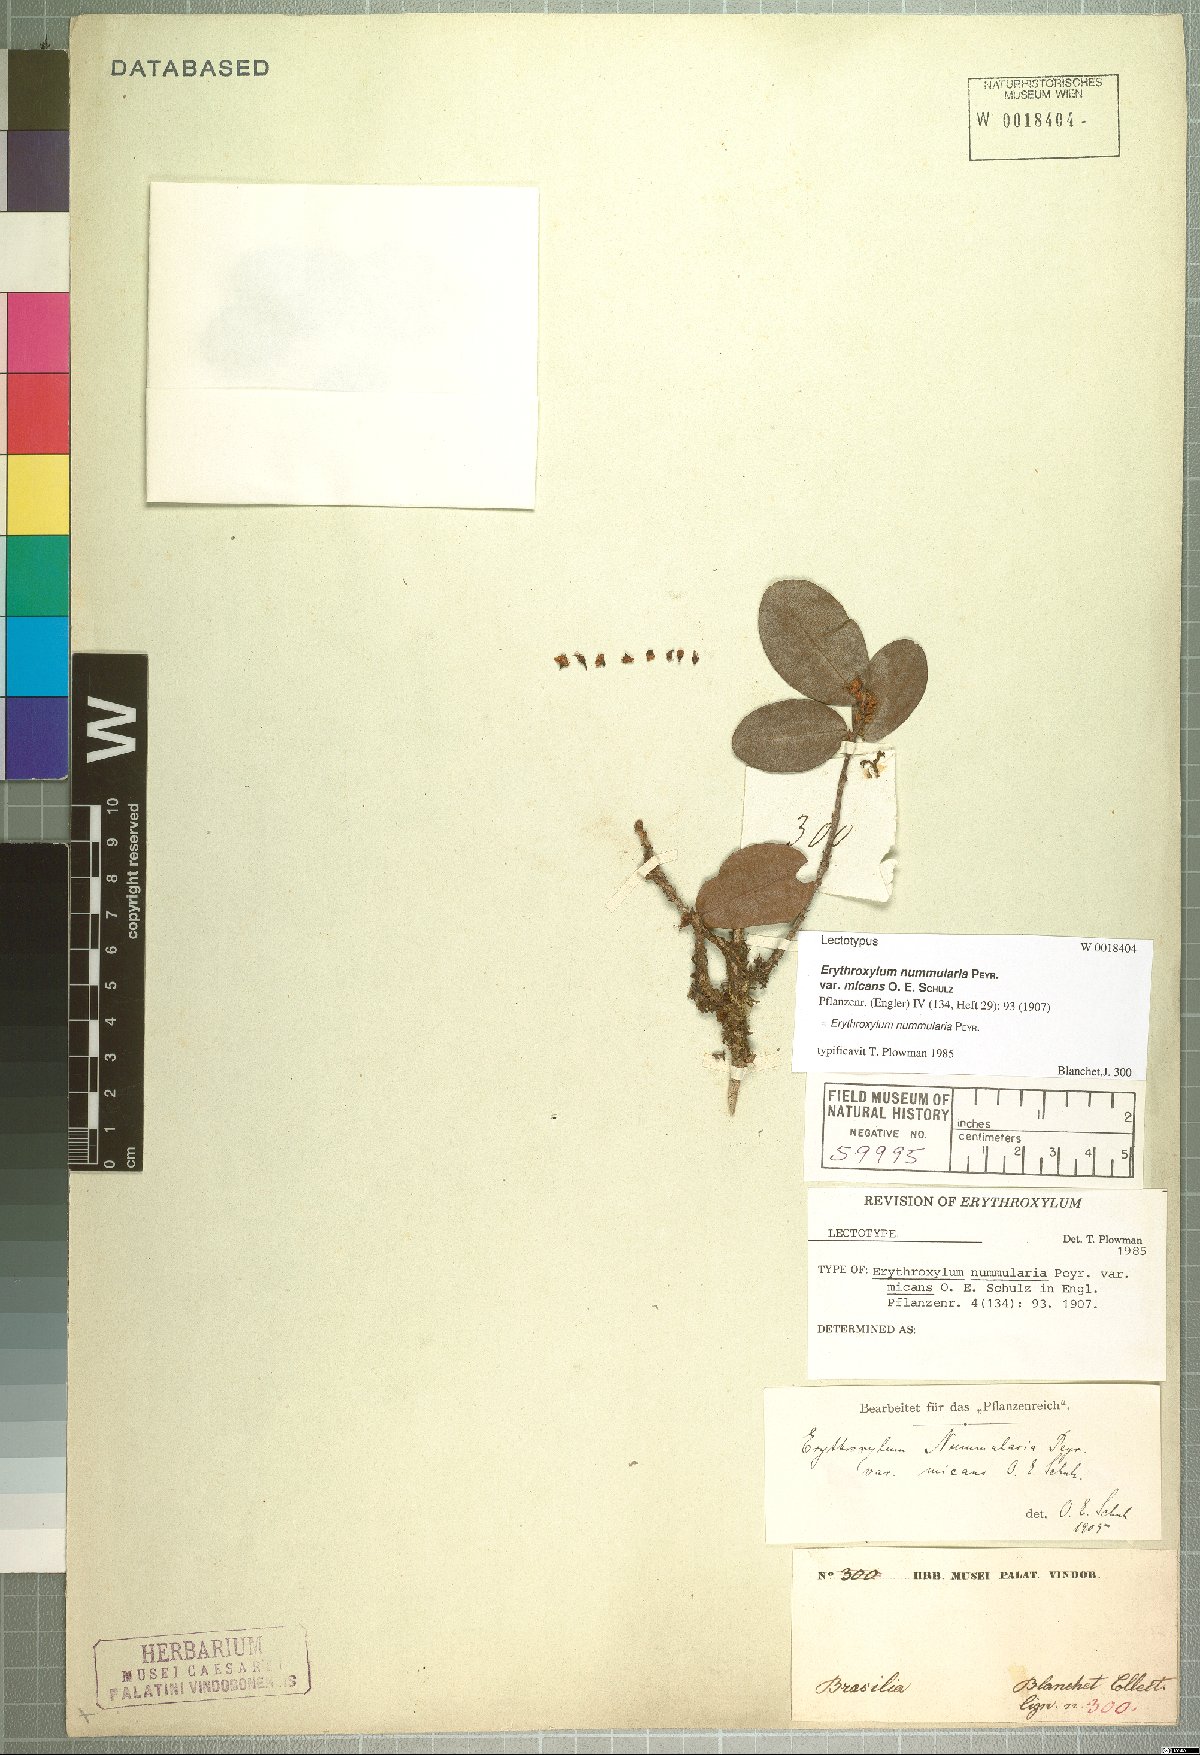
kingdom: Plantae
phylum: Tracheophyta
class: Magnoliopsida
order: Malpighiales
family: Erythroxylaceae
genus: Erythroxylum
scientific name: Erythroxylum nummularia
